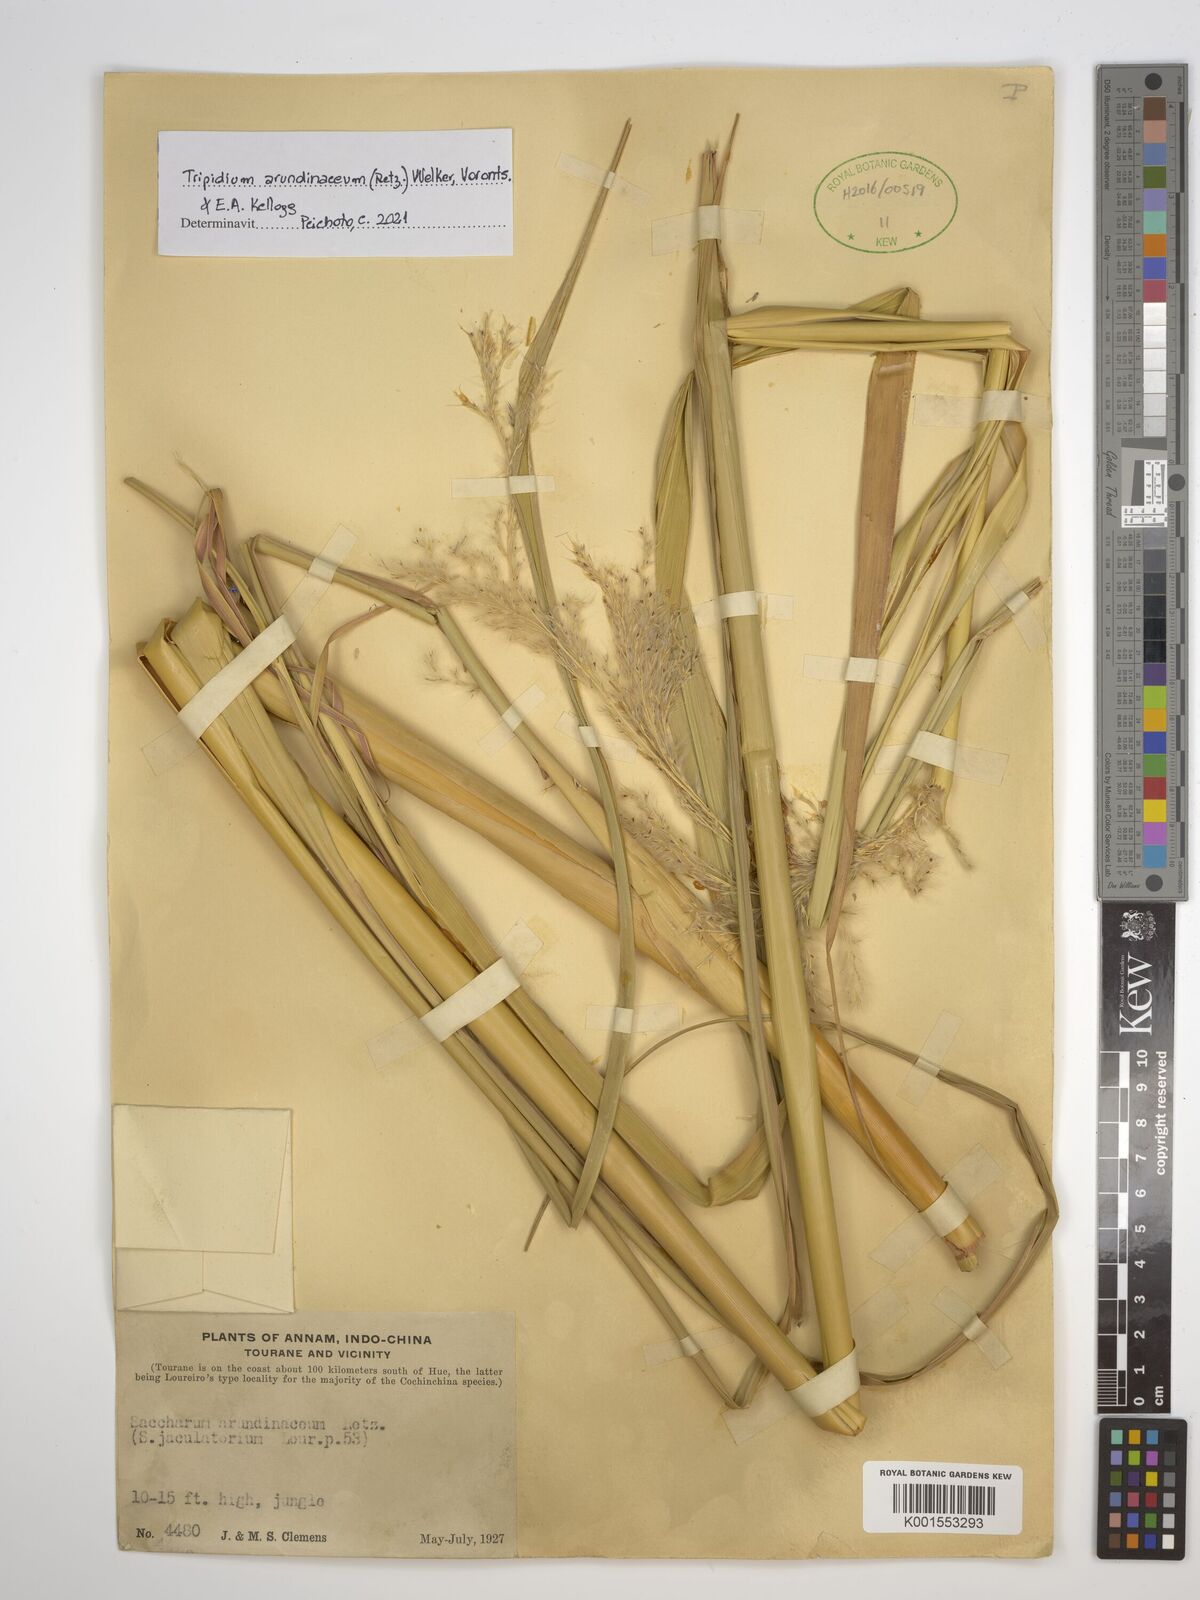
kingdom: Plantae
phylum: Tracheophyta
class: Liliopsida
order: Poales
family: Poaceae
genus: Tripidium
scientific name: Tripidium arundinaceum
